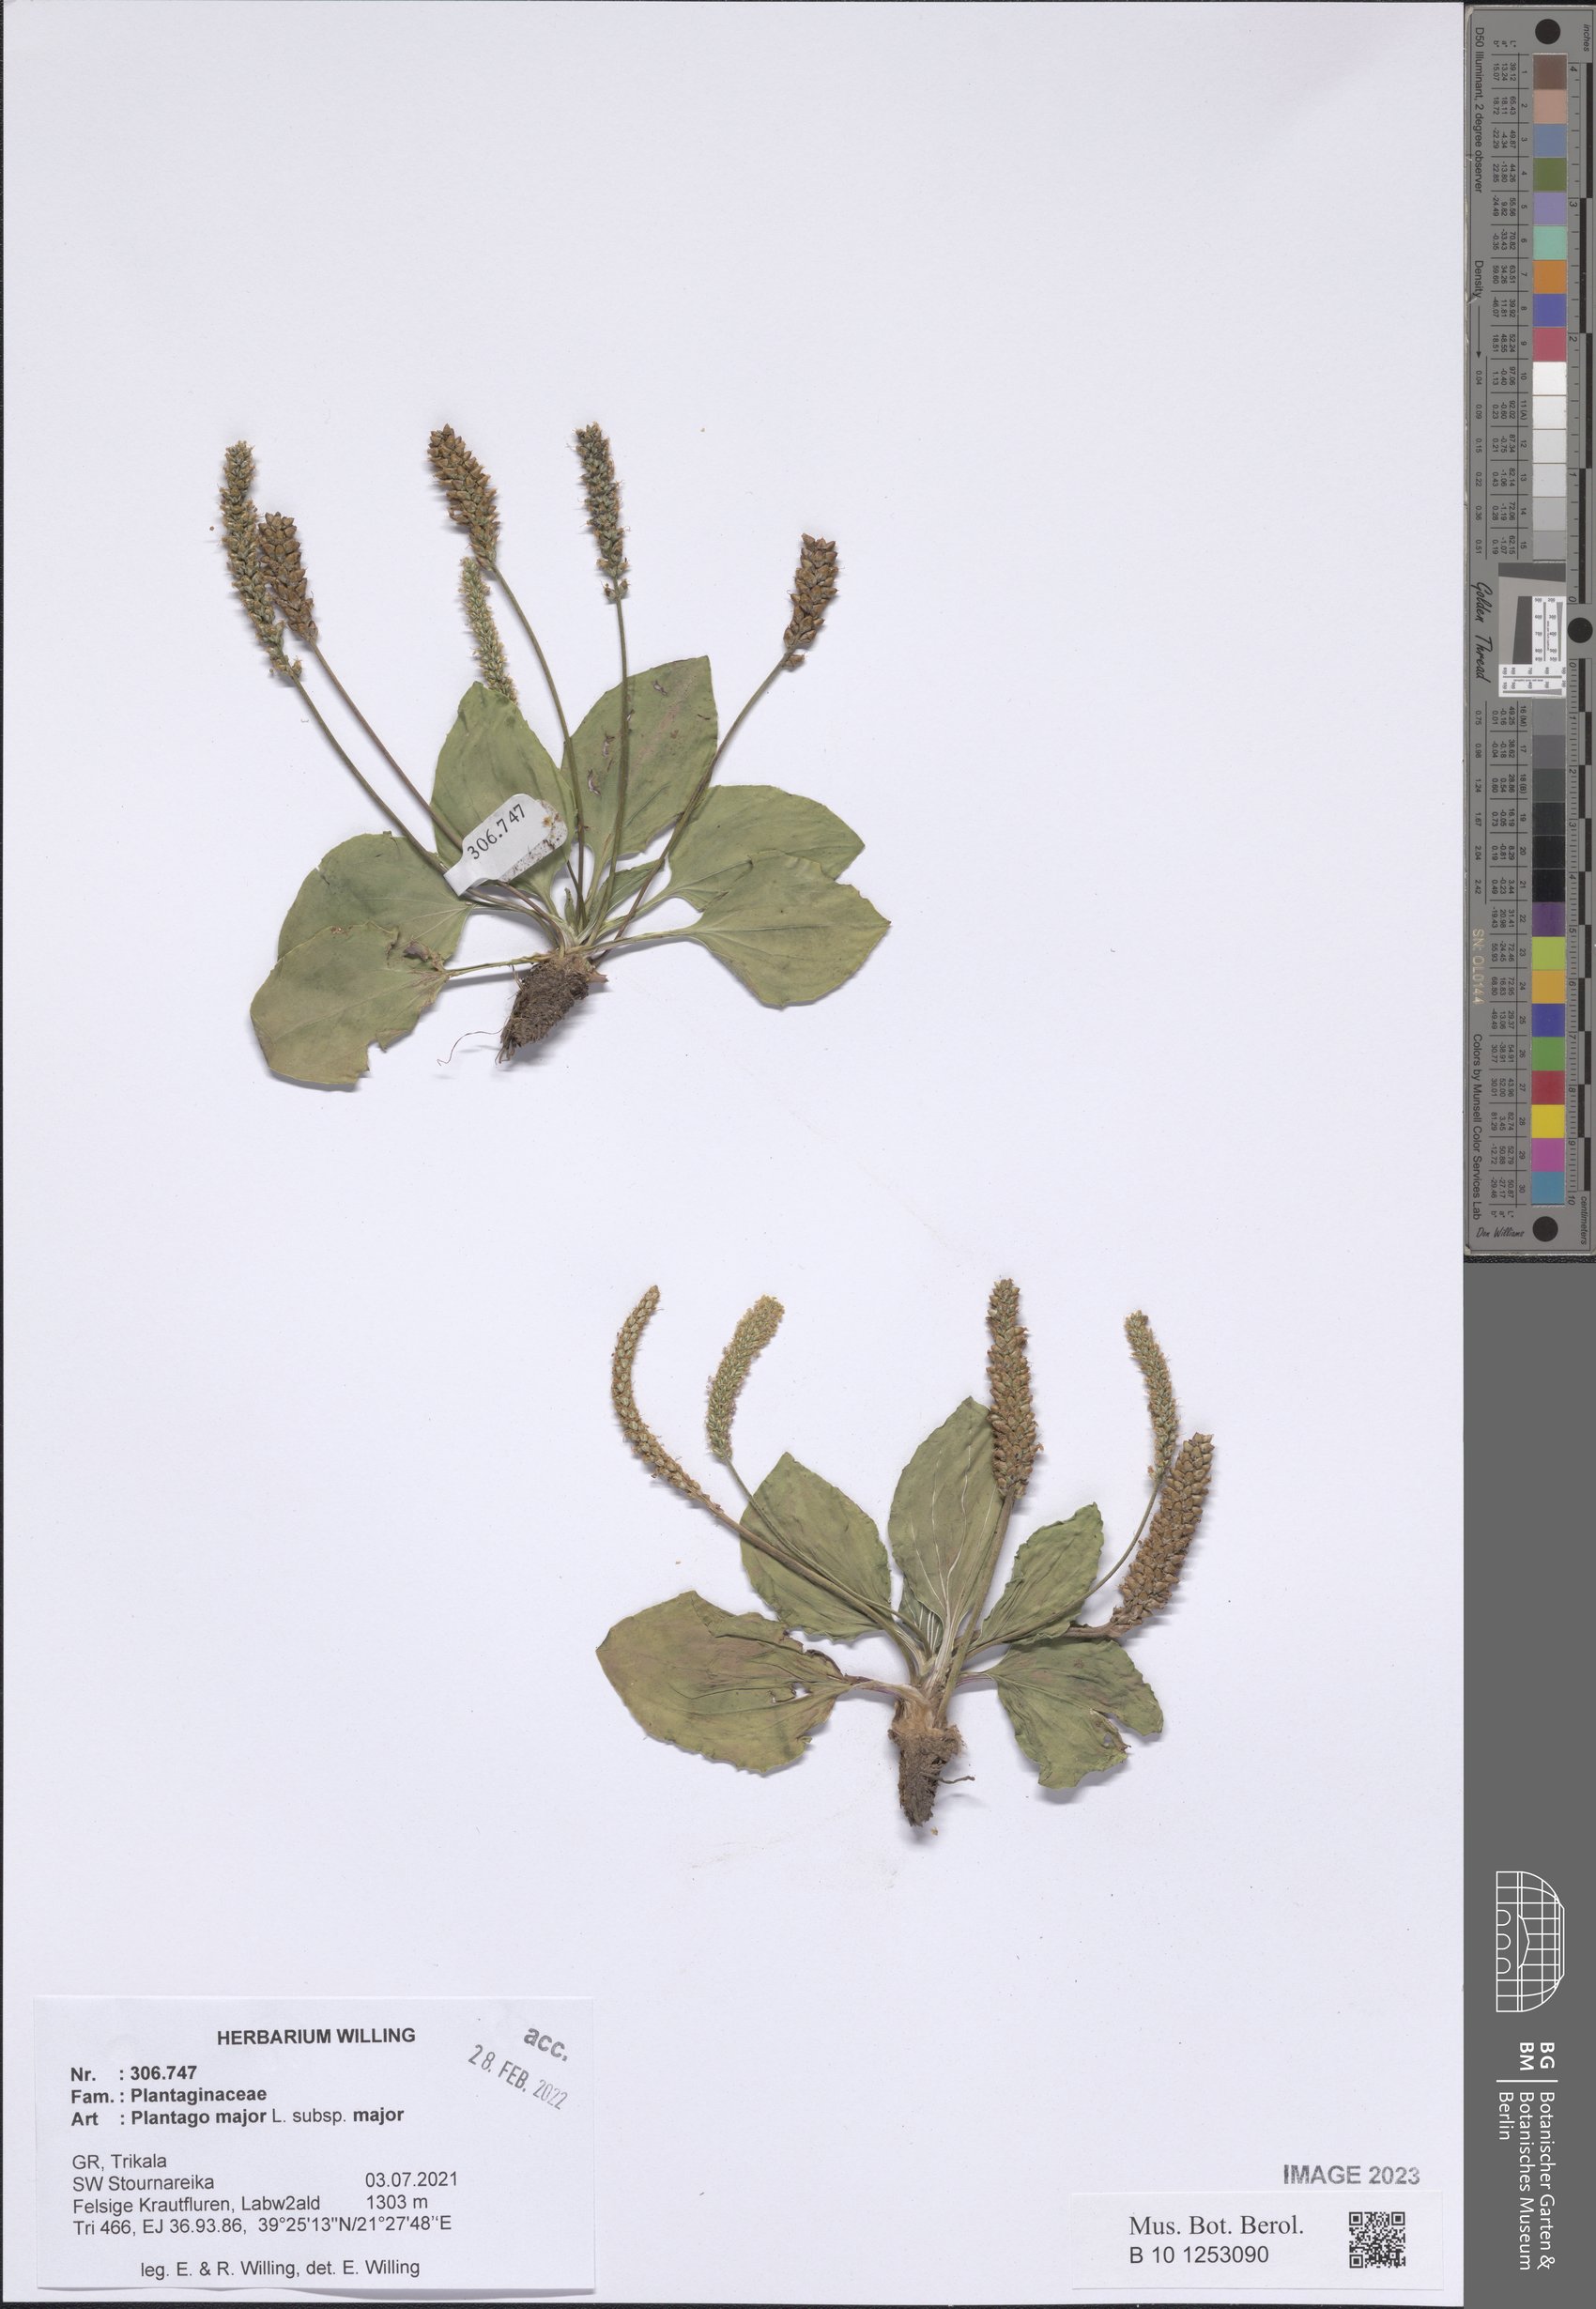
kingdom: Plantae
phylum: Tracheophyta
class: Magnoliopsida
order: Lamiales
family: Plantaginaceae
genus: Plantago
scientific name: Plantago major
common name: Common plantain
